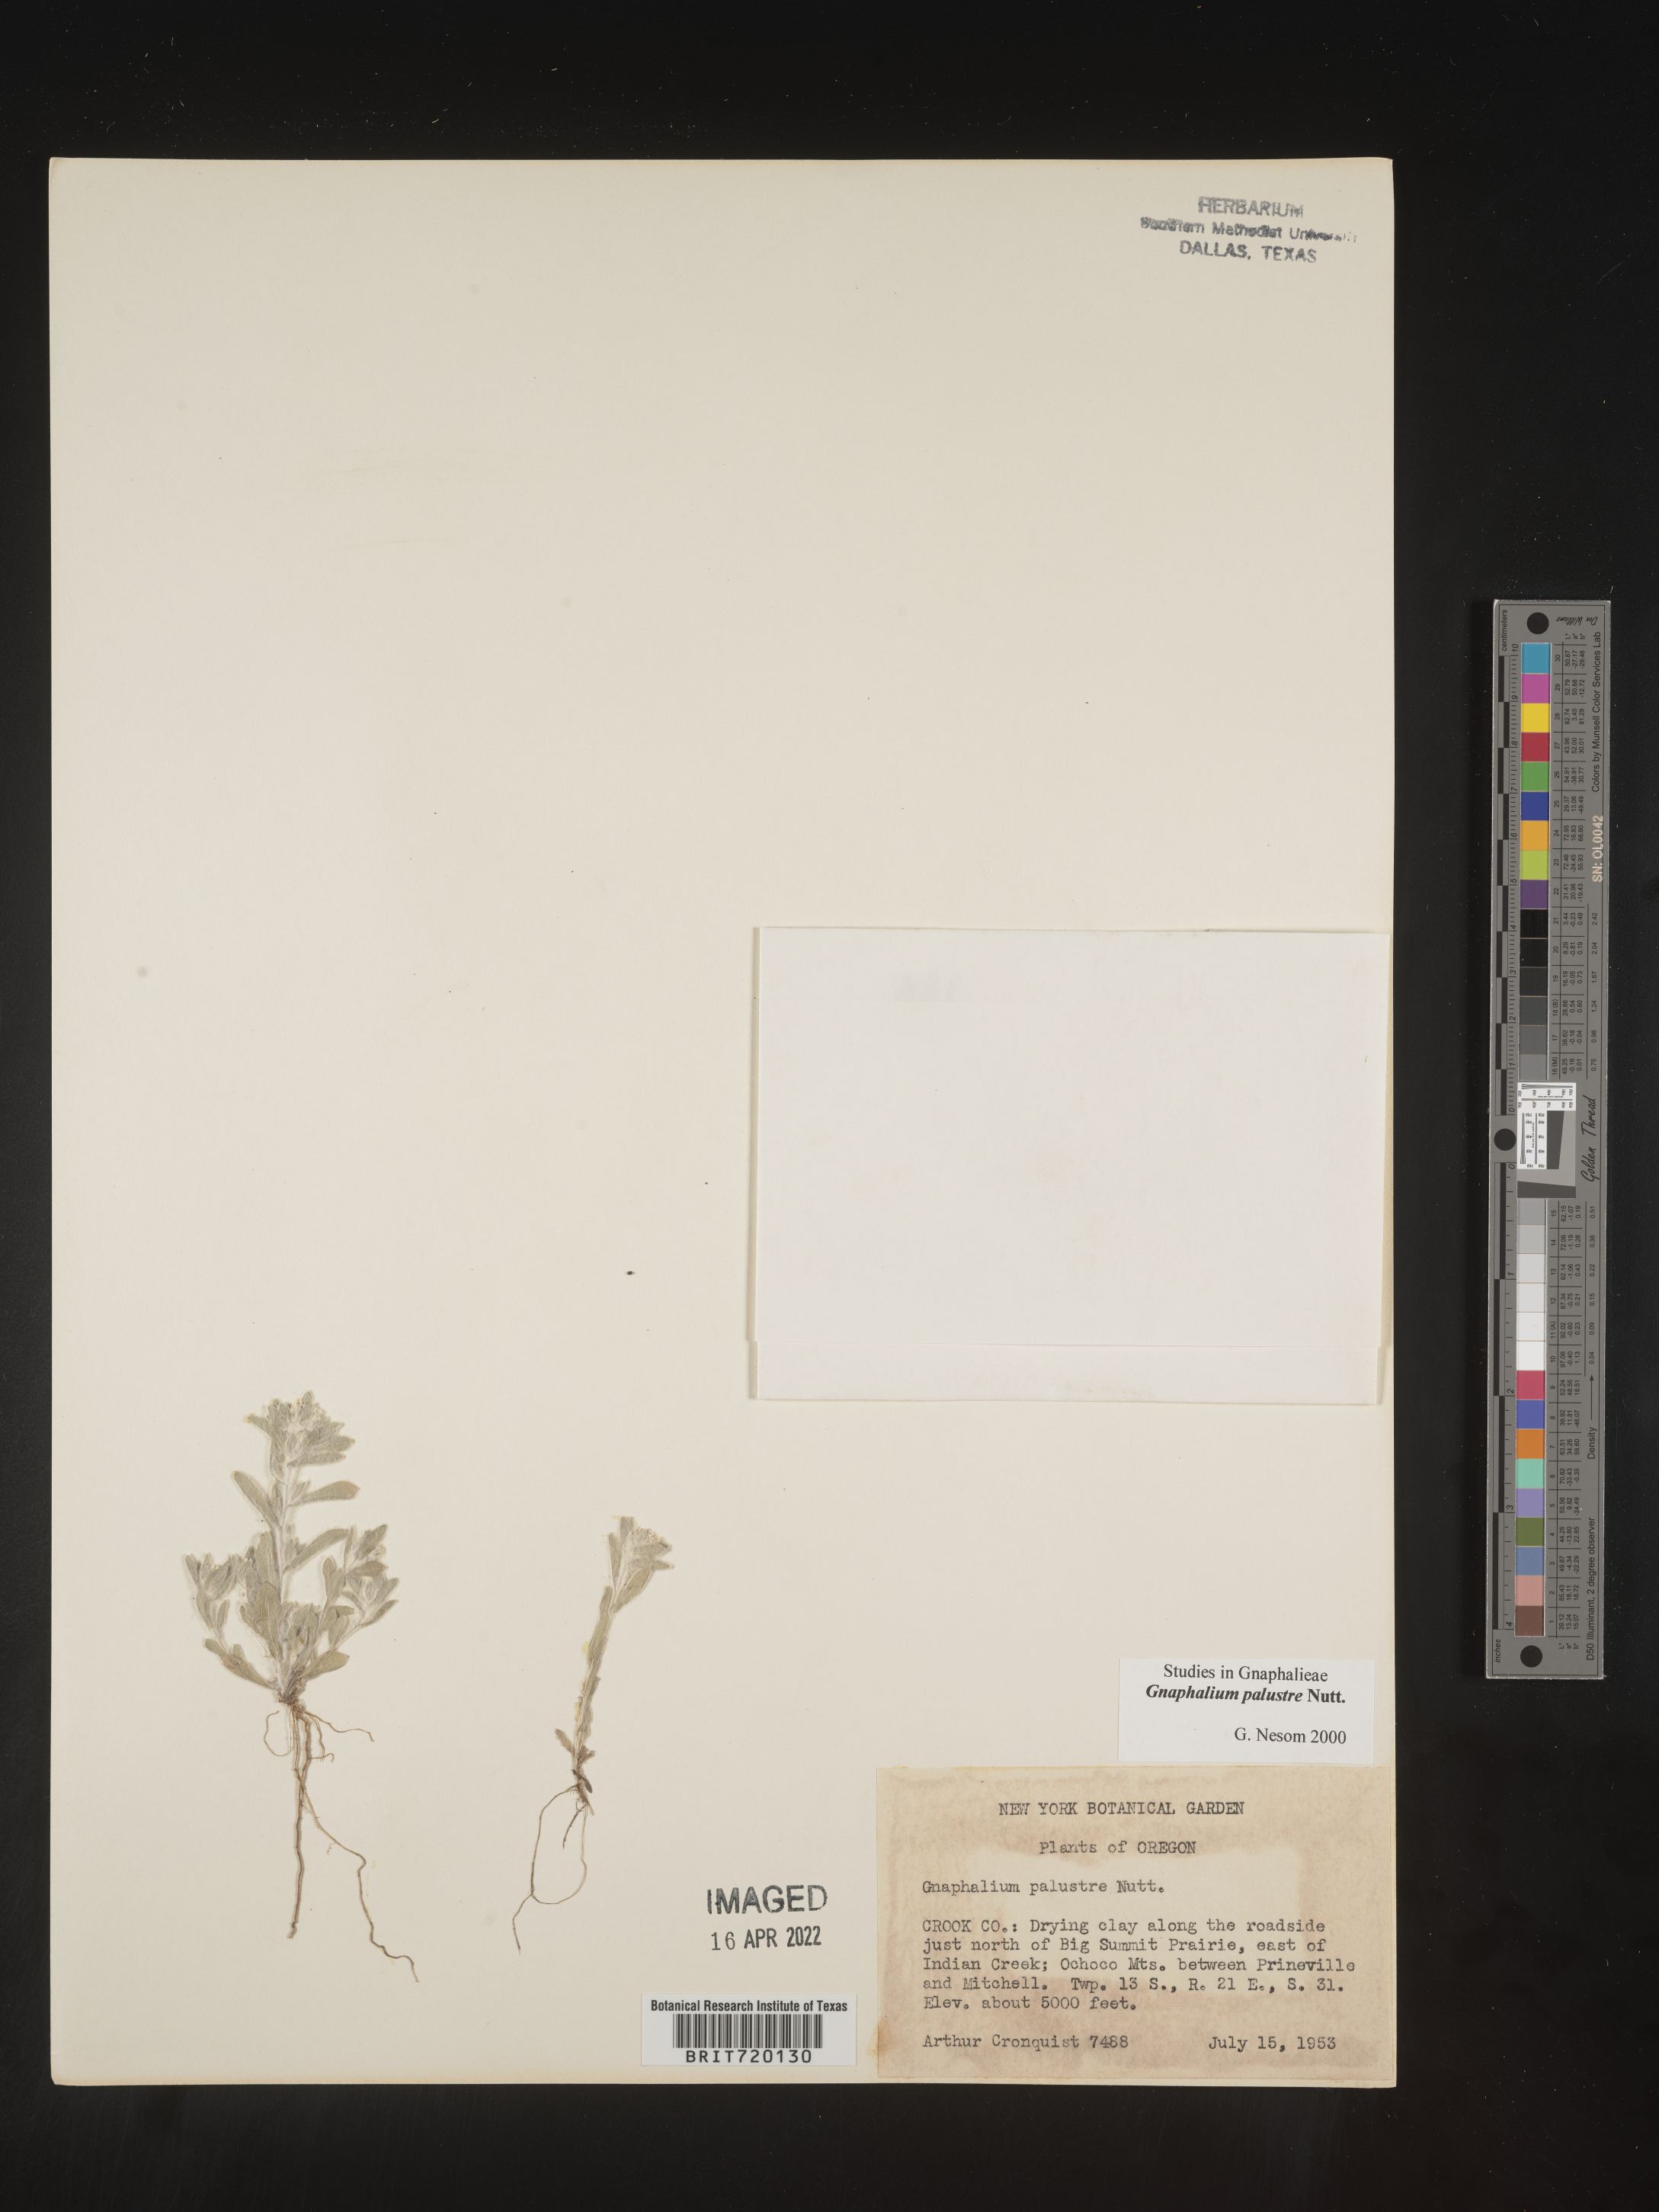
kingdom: Plantae
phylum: Tracheophyta
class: Magnoliopsida
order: Asterales
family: Asteraceae
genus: Gnaphalium
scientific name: Gnaphalium palustre
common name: Western marsh cudweed
